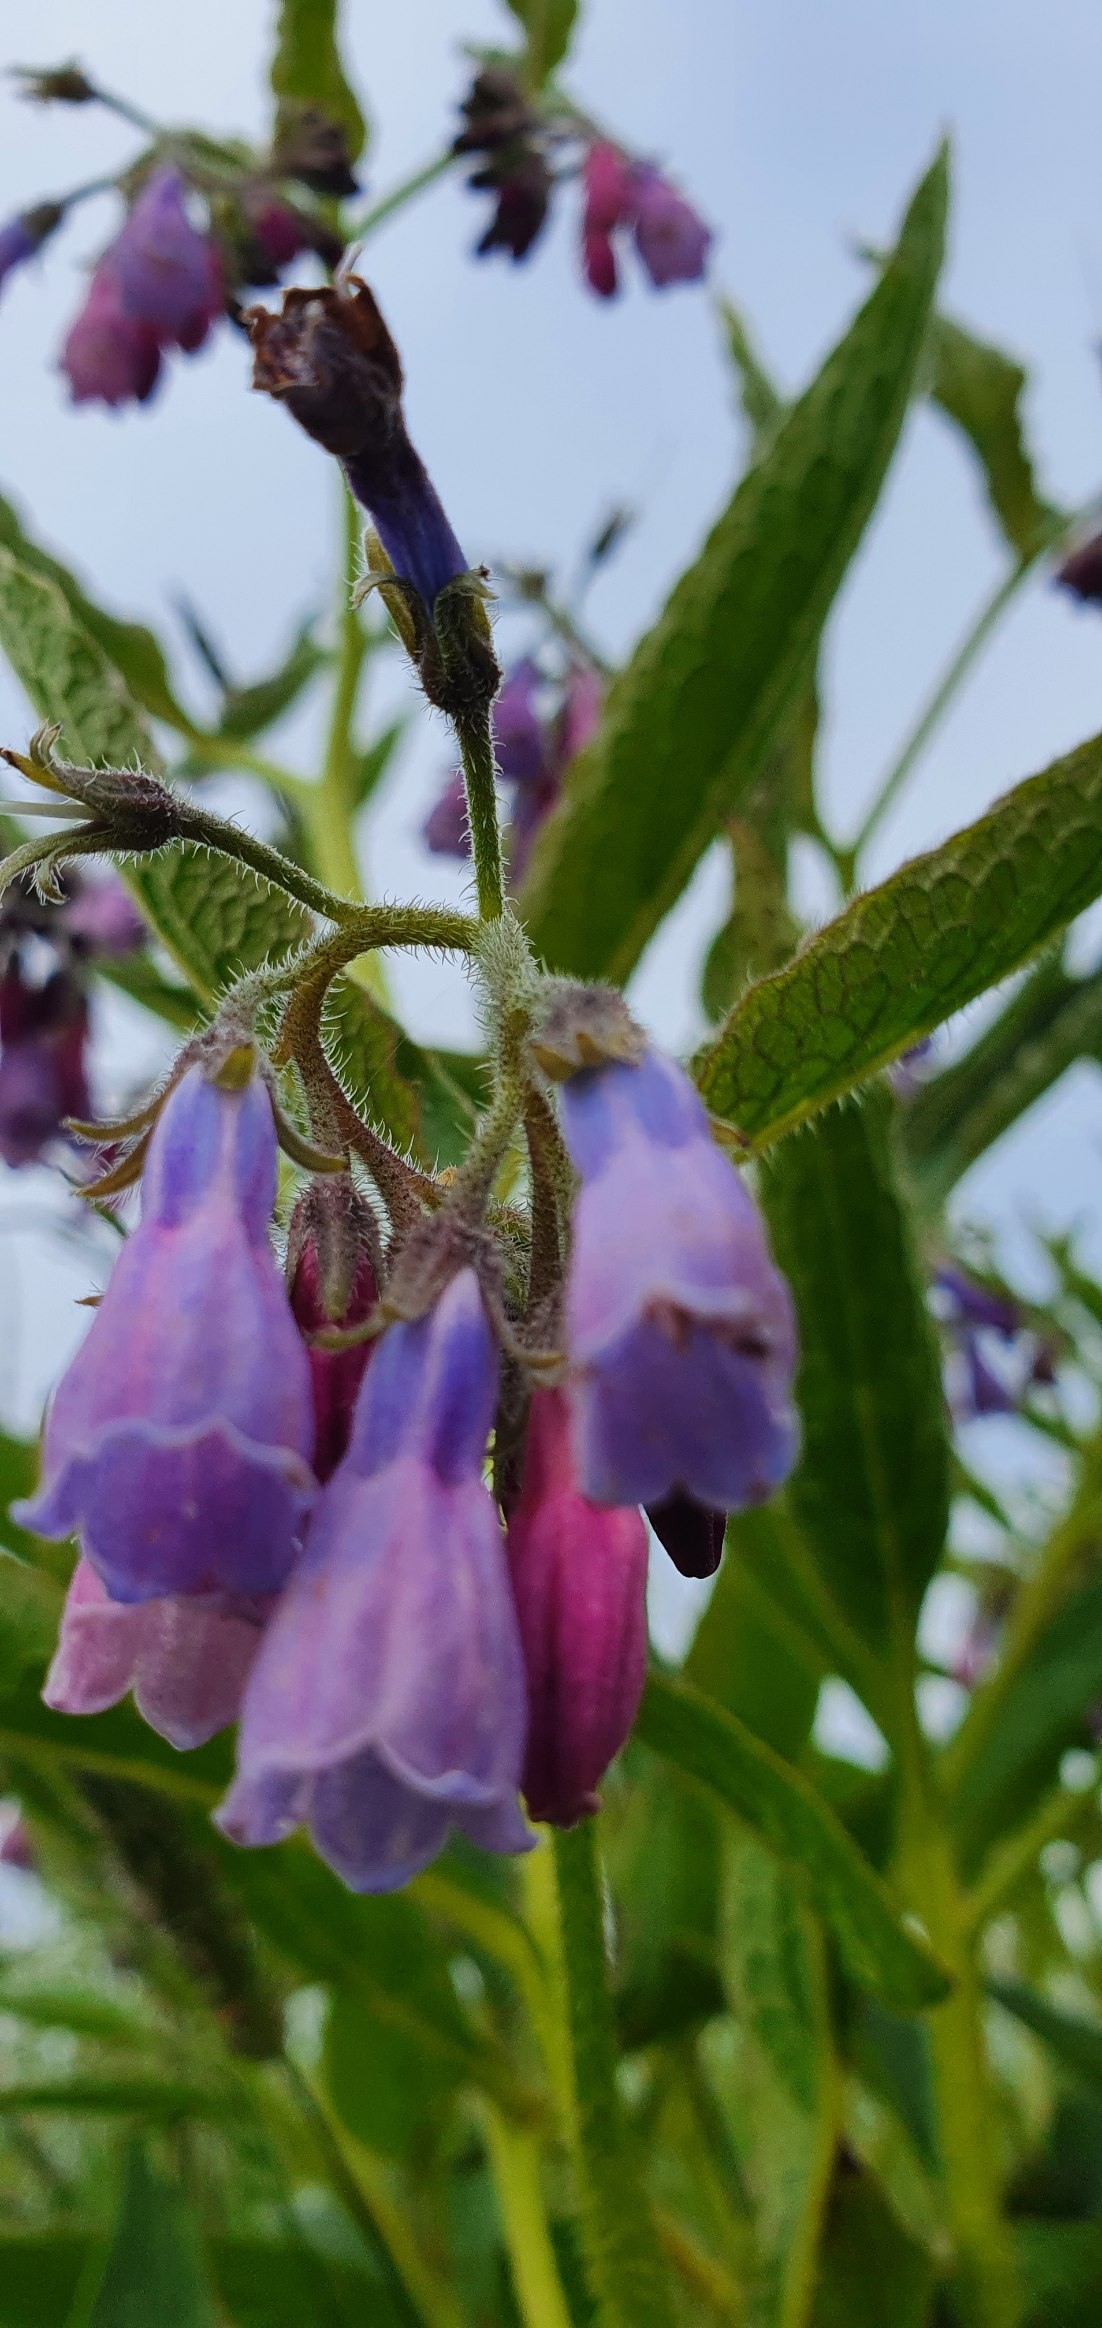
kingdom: Plantae
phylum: Tracheophyta
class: Magnoliopsida
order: Boraginales
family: Boraginaceae
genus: Symphytum
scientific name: Symphytum uplandicum
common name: Foder-kulsukker
